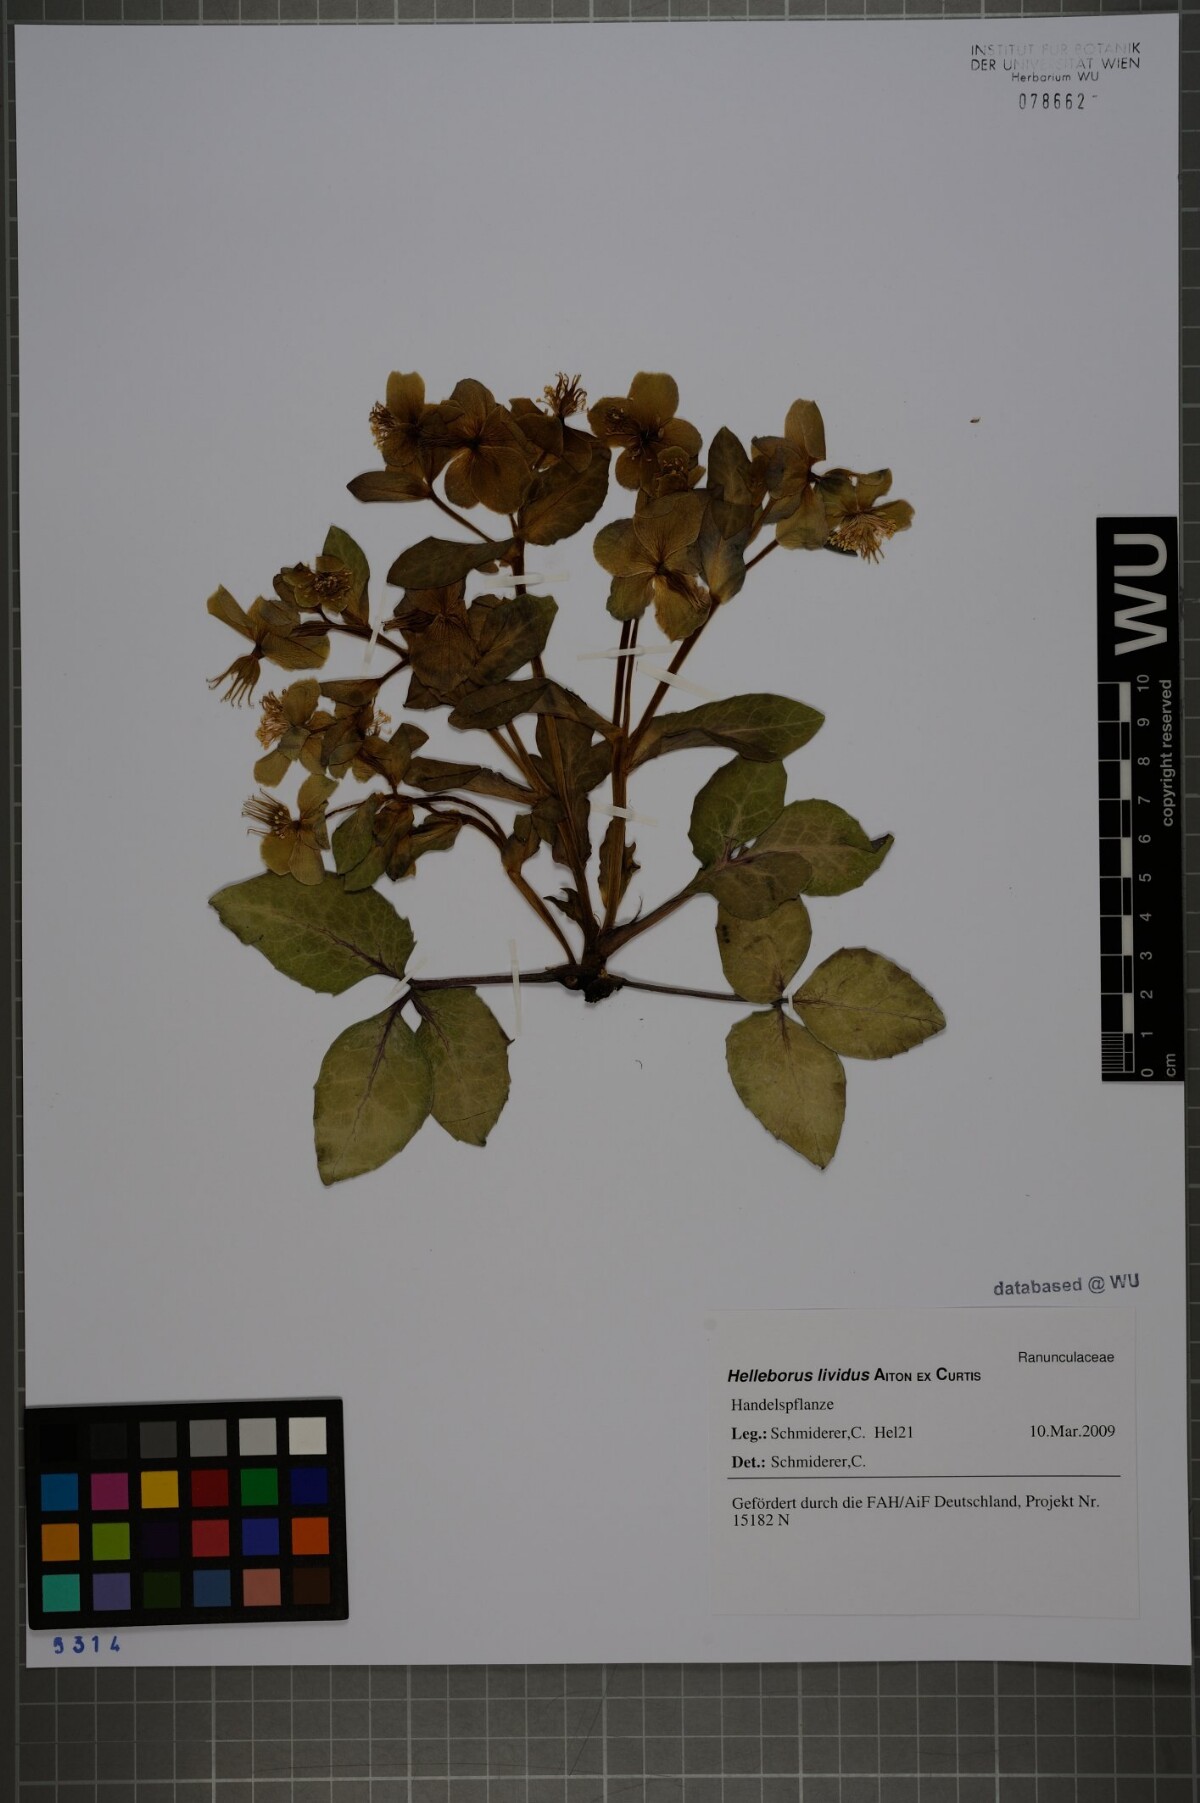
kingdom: Plantae
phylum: Tracheophyta
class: Magnoliopsida
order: Ranunculales
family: Ranunculaceae
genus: Helleborus
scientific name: Helleborus lividus
